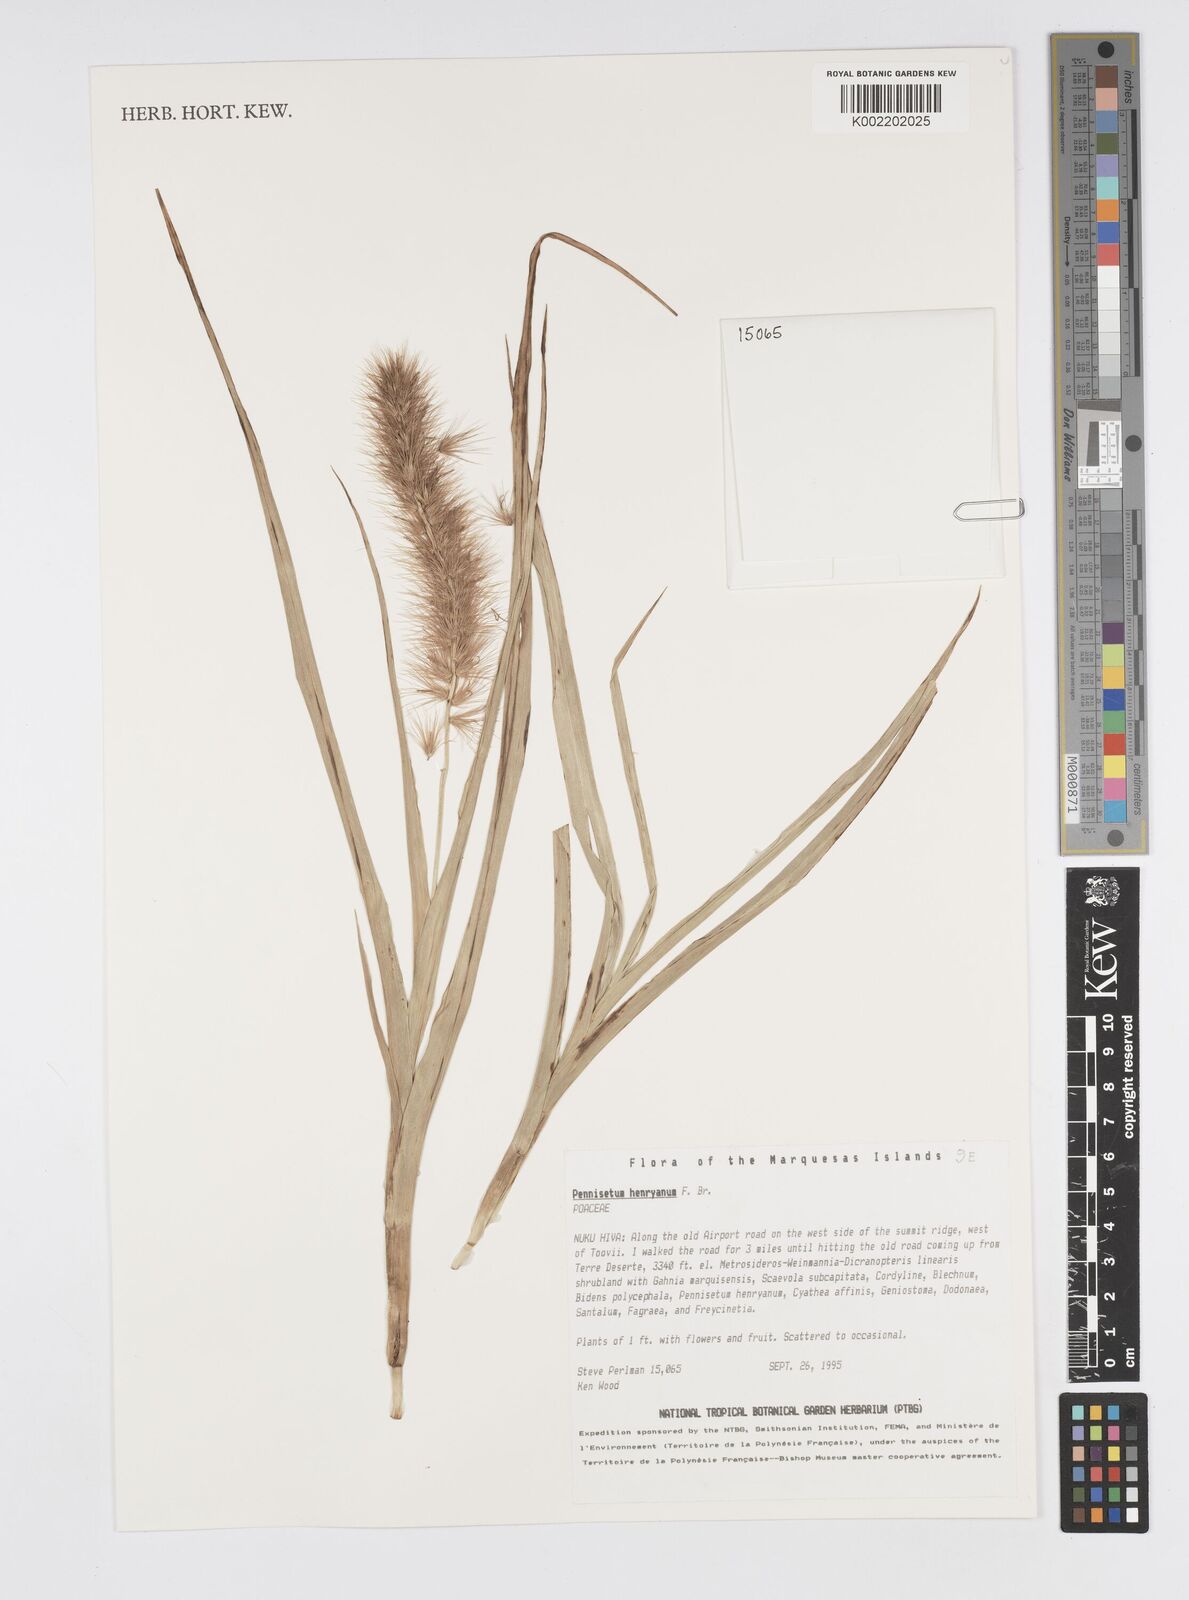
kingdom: Plantae
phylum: Tracheophyta
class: Liliopsida
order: Poales
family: Poaceae
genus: Cenchrus
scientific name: Cenchrus henryanus
